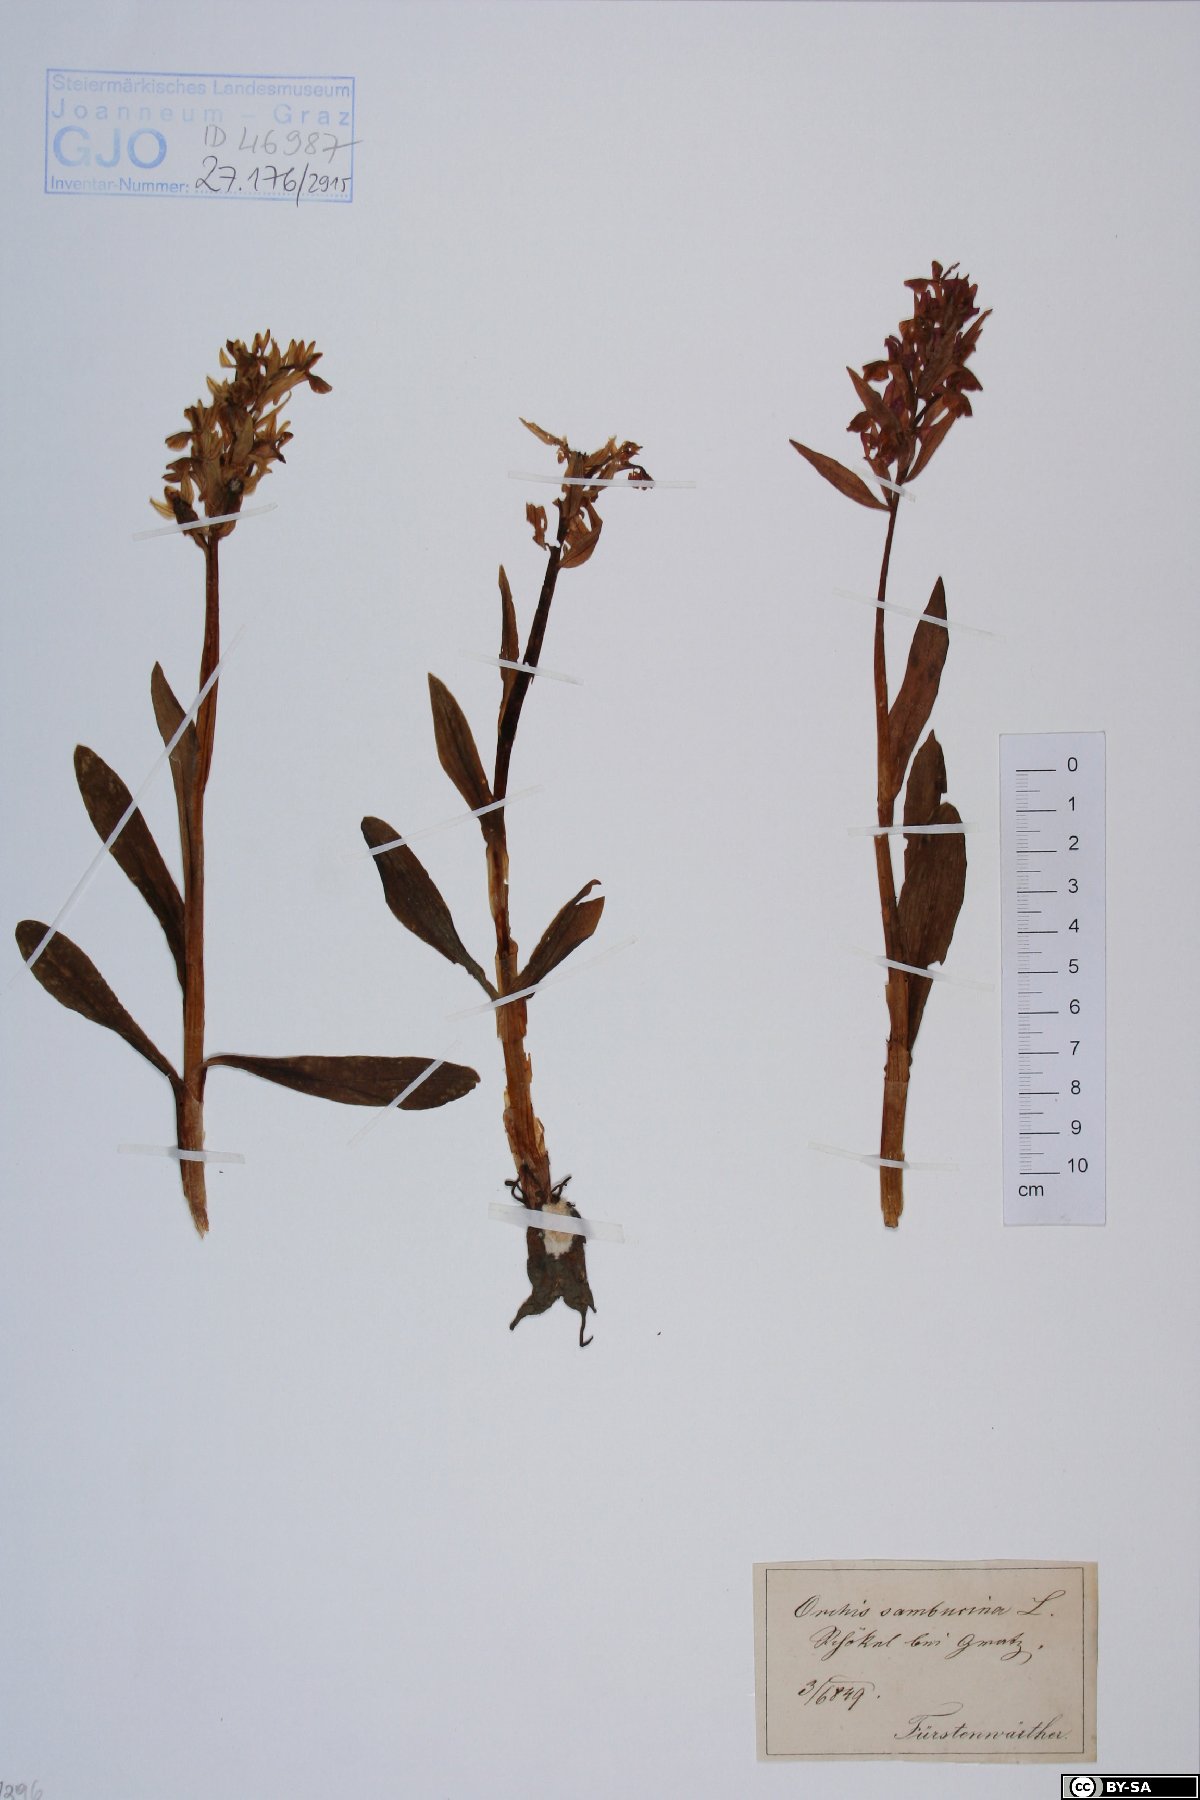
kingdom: Plantae
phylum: Tracheophyta
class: Liliopsida
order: Asparagales
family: Orchidaceae
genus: Dactylorhiza
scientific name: Dactylorhiza sambucina
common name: Elder-flowered orchid
